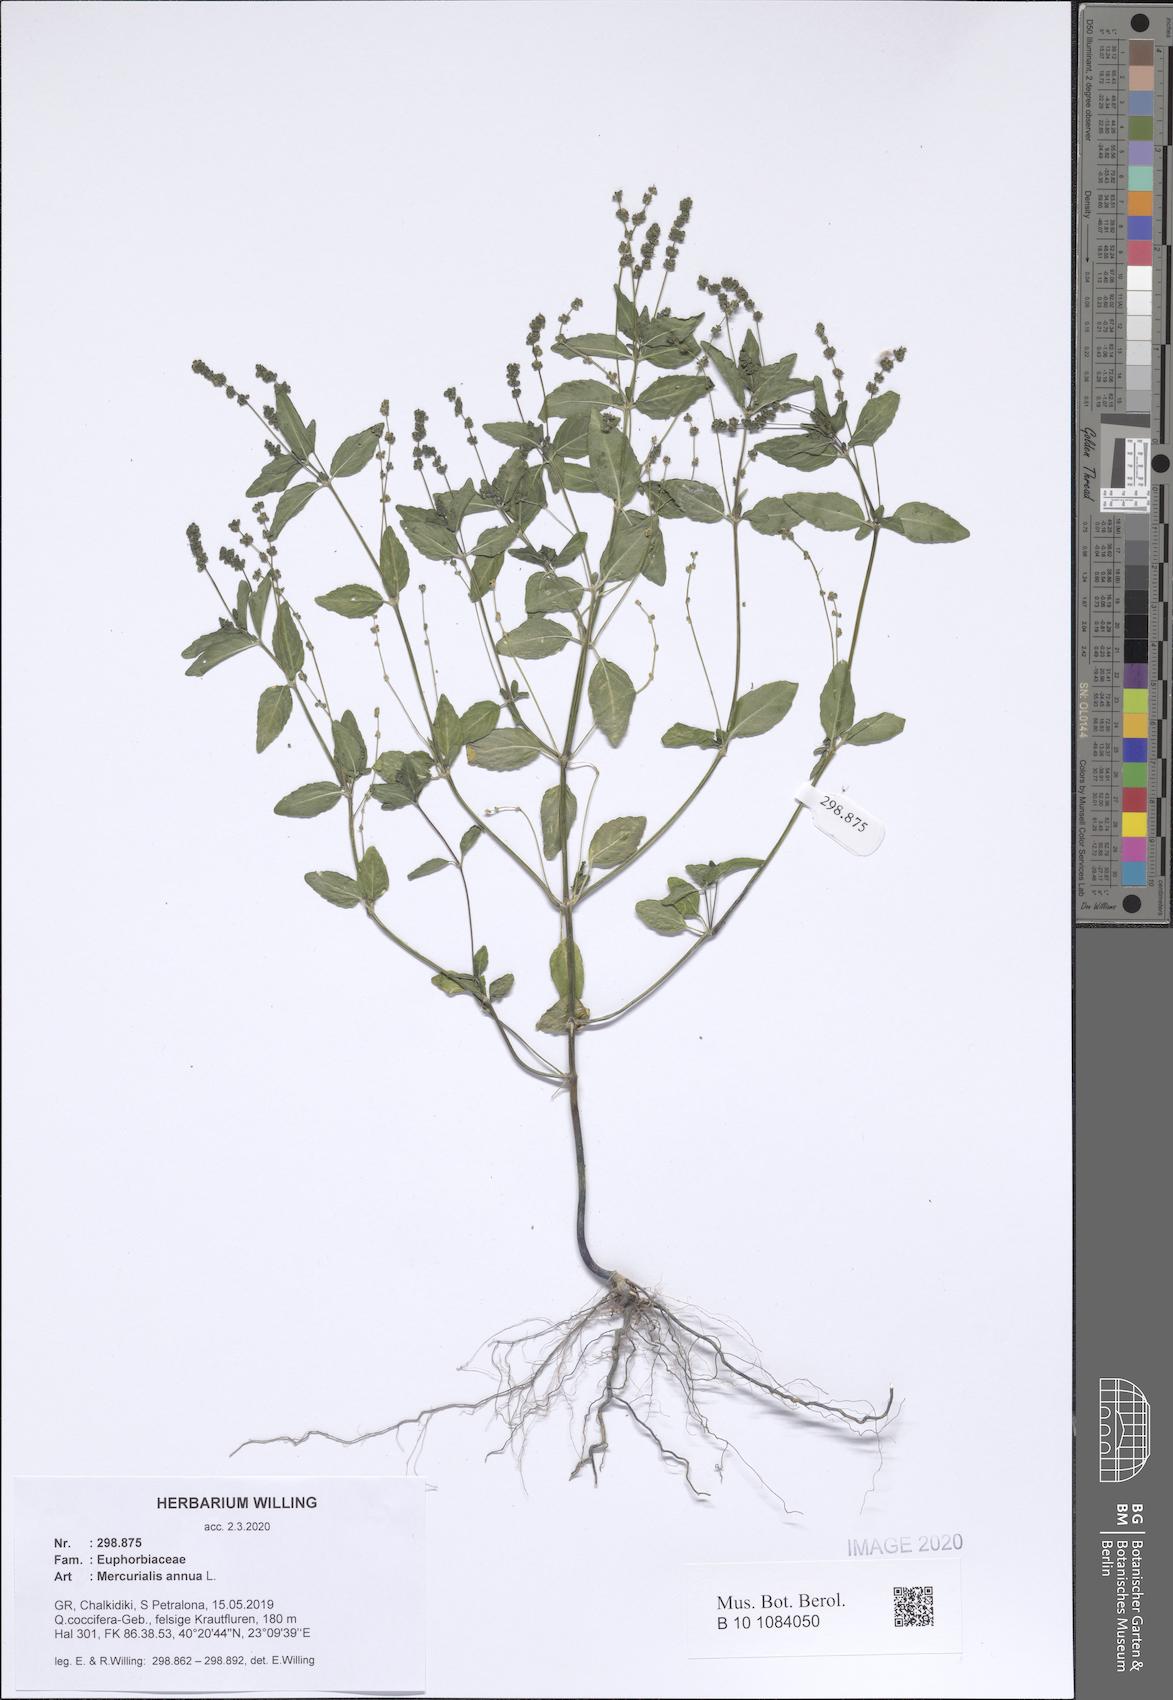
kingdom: Plantae
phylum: Tracheophyta
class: Magnoliopsida
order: Malpighiales
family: Euphorbiaceae
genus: Mercurialis
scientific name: Mercurialis annua
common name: Annual mercury
